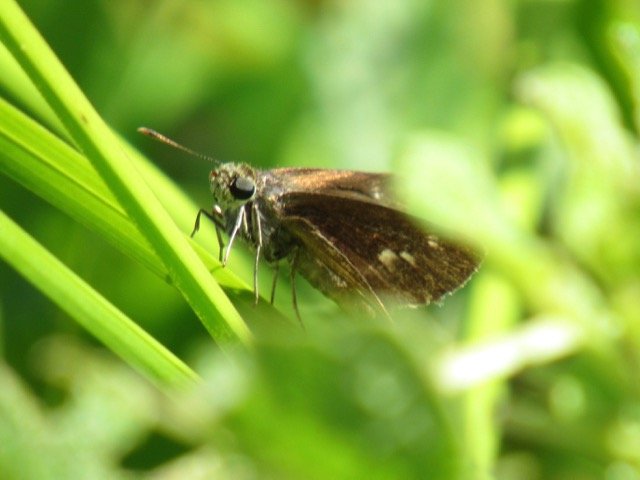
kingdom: Animalia
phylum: Arthropoda
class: Insecta
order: Lepidoptera
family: Hesperiidae
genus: Polites
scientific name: Polites egeremet
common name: Northern Broken-Dash
